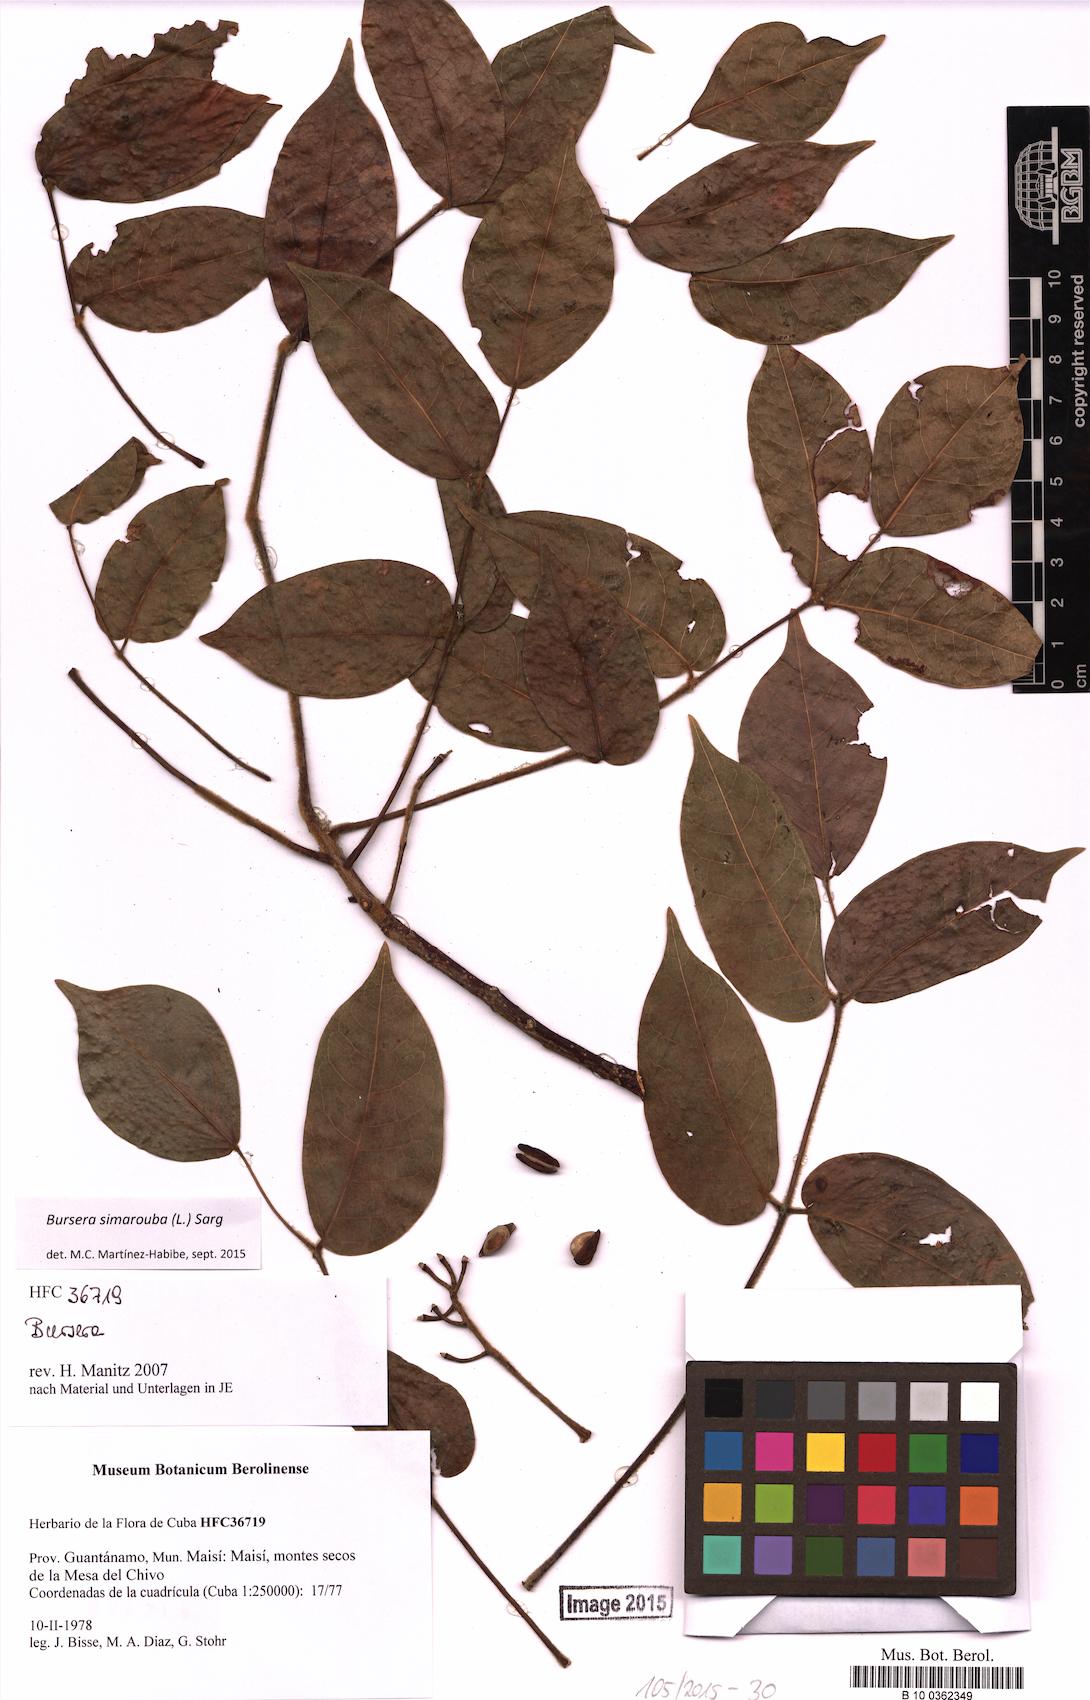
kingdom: Plantae
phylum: Tracheophyta
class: Magnoliopsida
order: Sapindales
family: Burseraceae
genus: Bursera
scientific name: Bursera simaruba
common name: Turpentine tree
